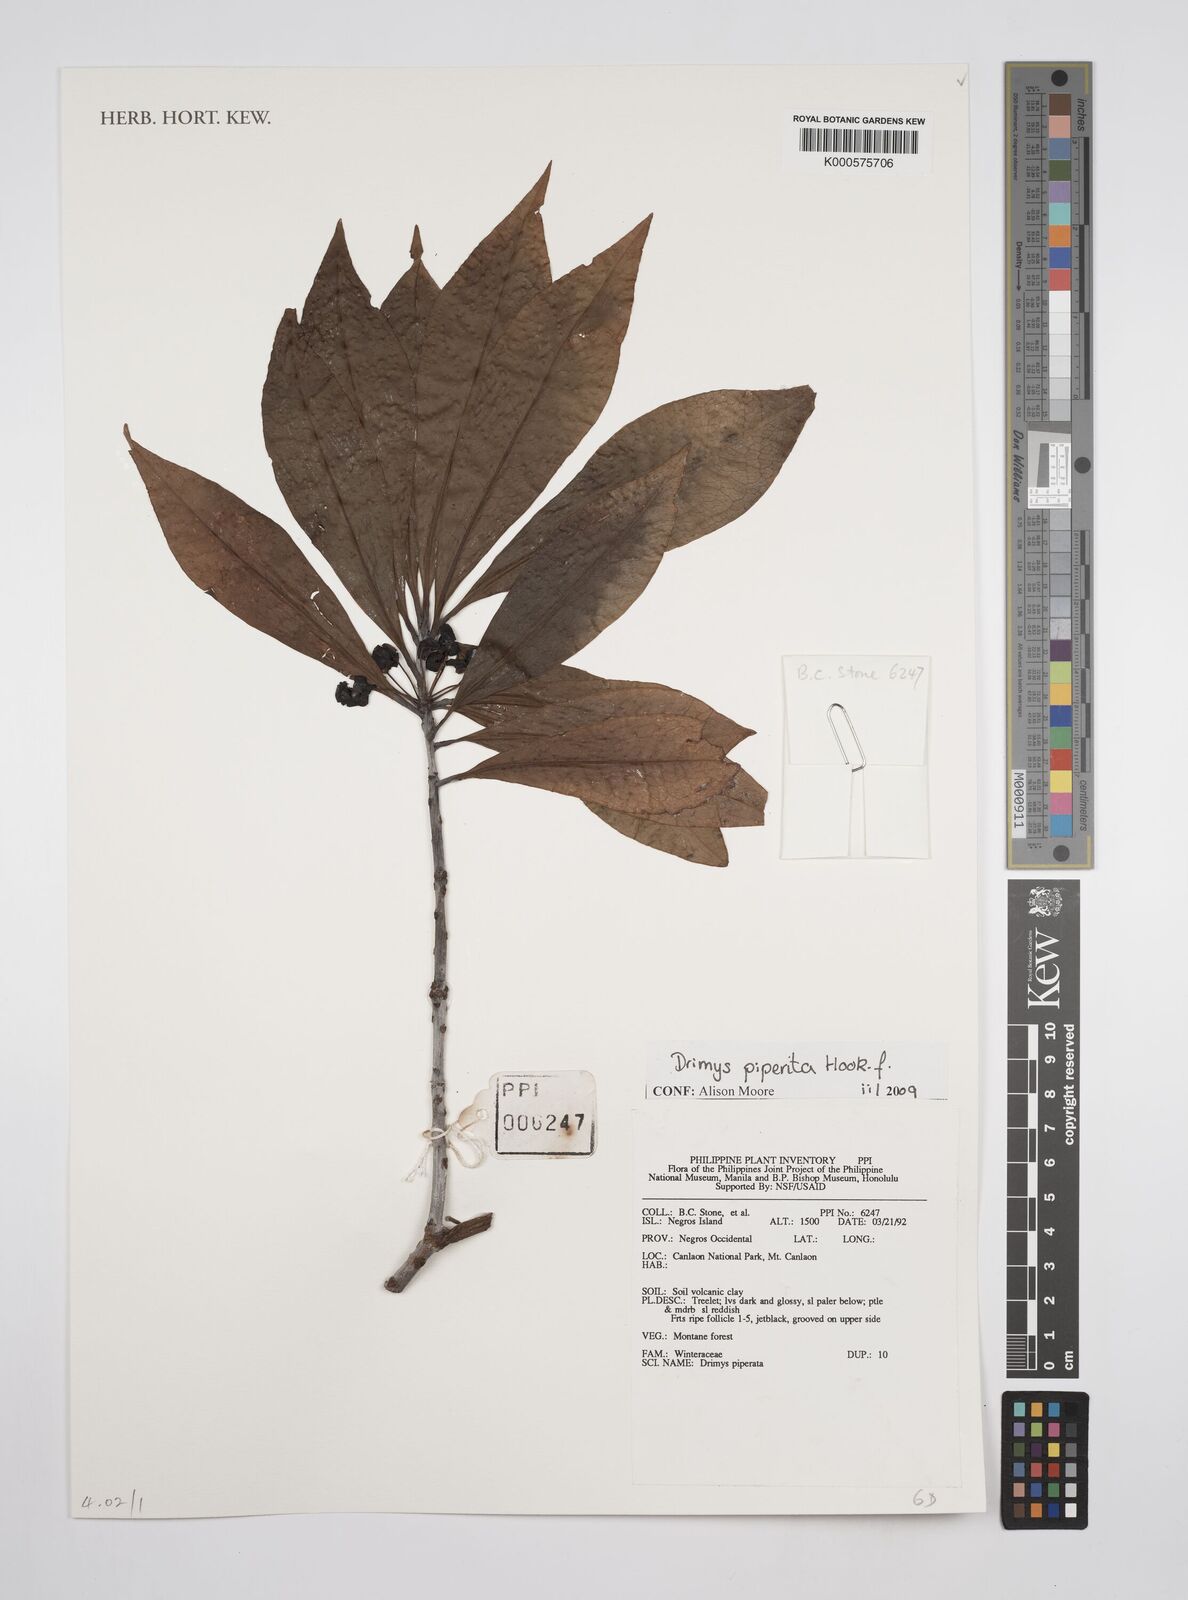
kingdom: Plantae
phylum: Tracheophyta
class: Magnoliopsida
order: Canellales
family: Winteraceae
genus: Drimys
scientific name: Drimys piperita
